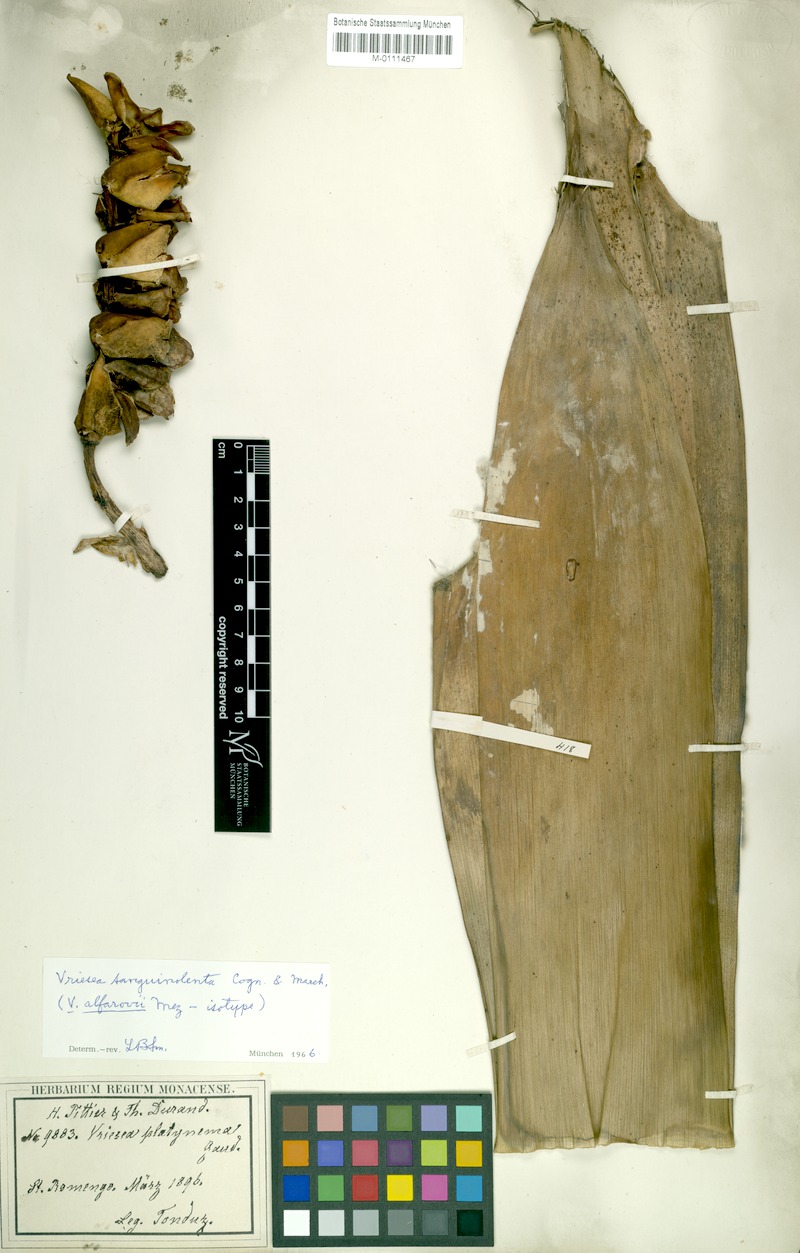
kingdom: Plantae
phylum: Tracheophyta
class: Liliopsida
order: Poales
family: Bromeliaceae
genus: Werauhia
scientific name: Werauhia sanguinolenta
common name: Bromeliad
